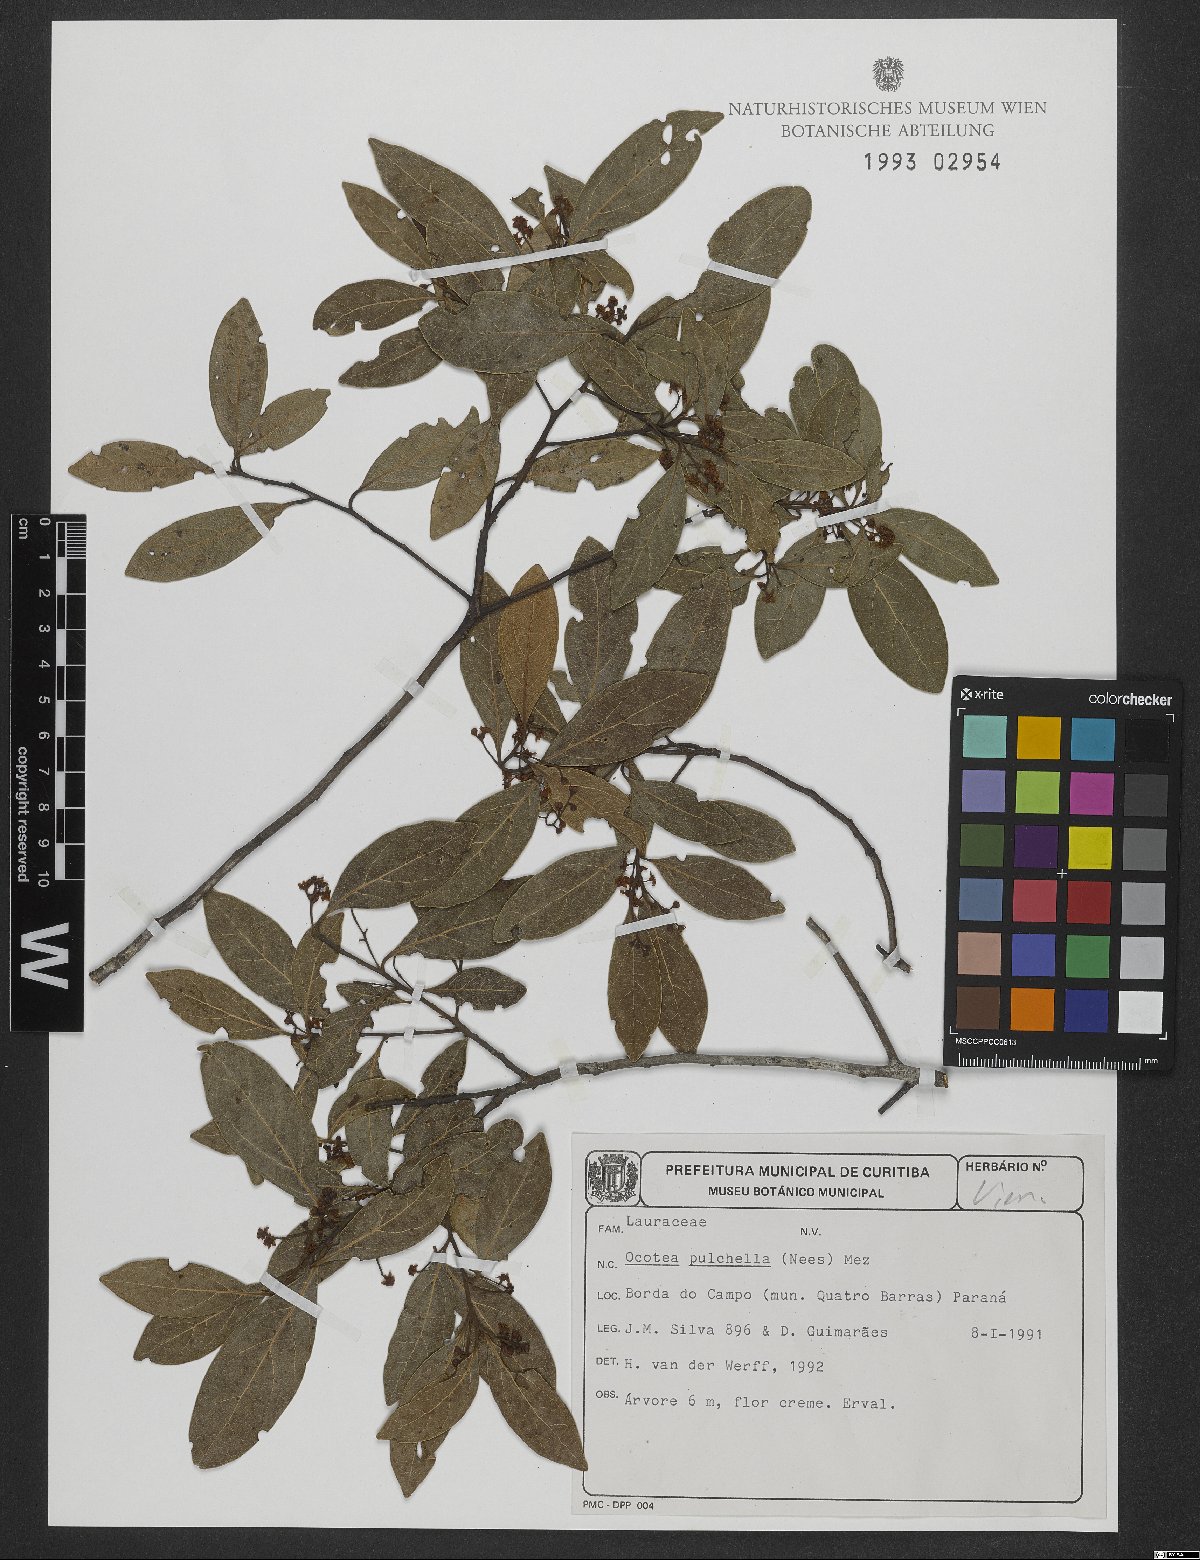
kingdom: Plantae
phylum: Tracheophyta
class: Magnoliopsida
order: Laurales
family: Lauraceae
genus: Mespilodaphne
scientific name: Mespilodaphne pulchella
